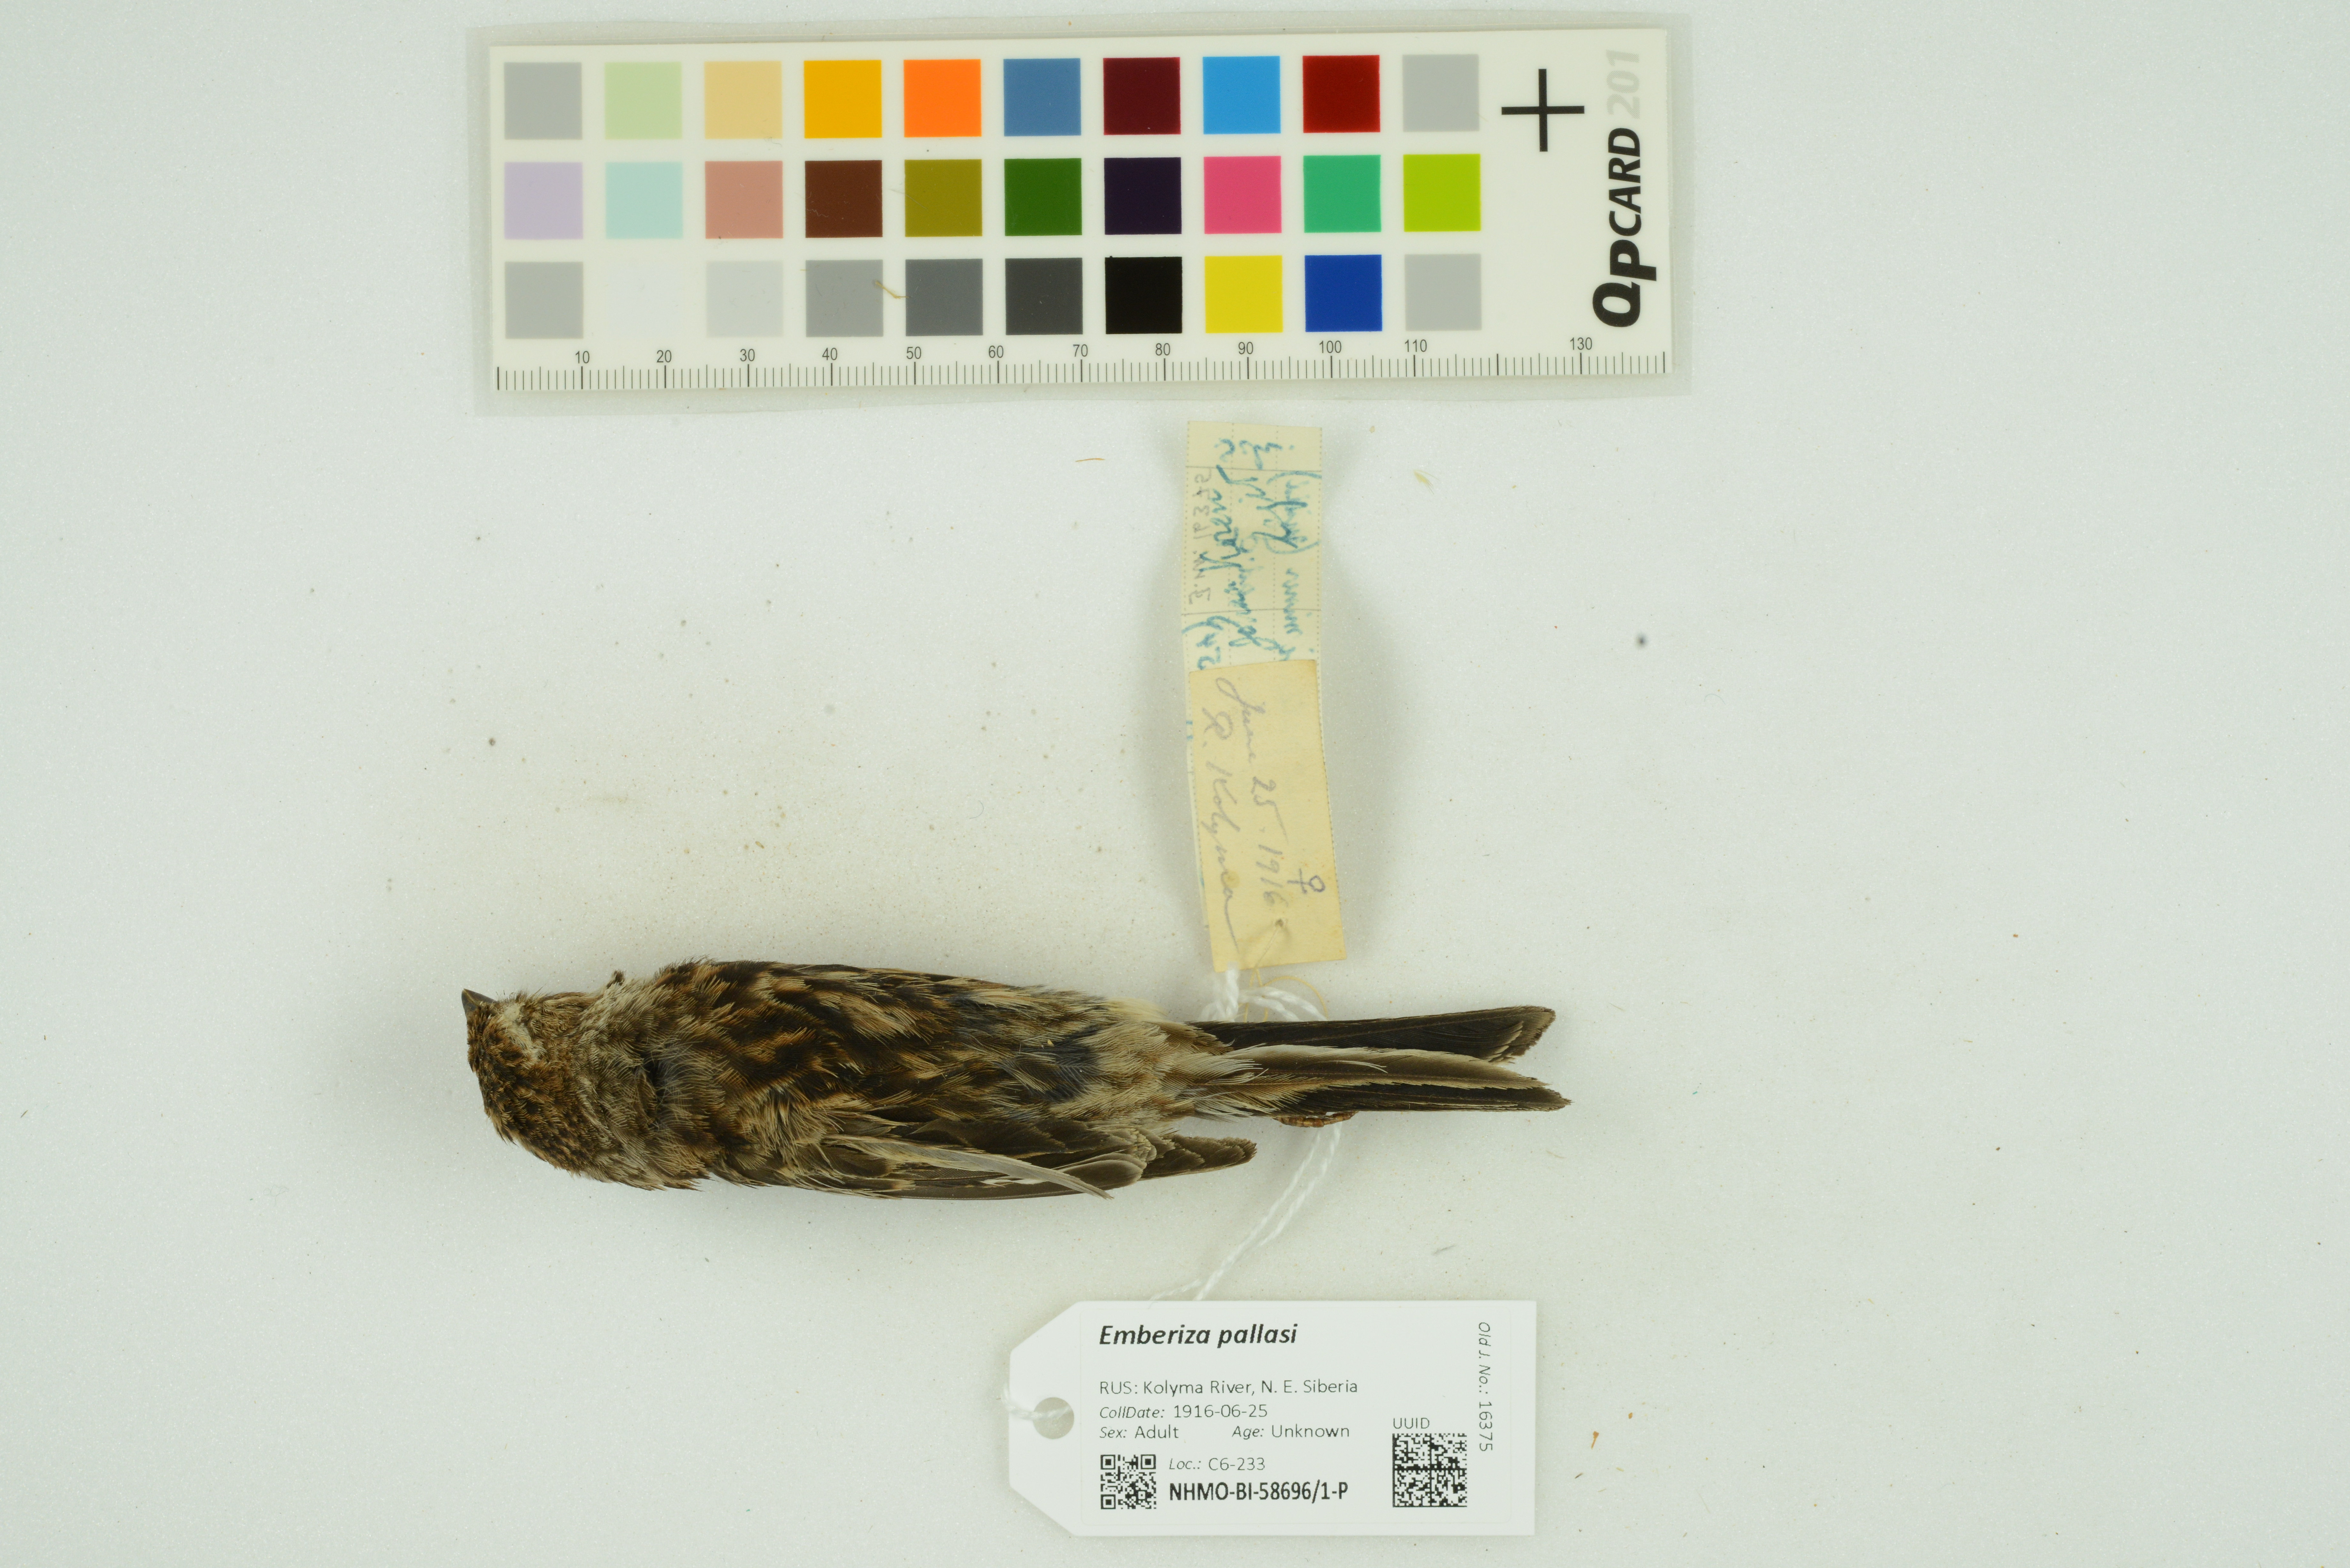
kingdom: Animalia
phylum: Chordata
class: Aves
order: Passeriformes
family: Emberizidae
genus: Emberiza
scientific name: Emberiza pallasi
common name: Pallas's reed bunting
